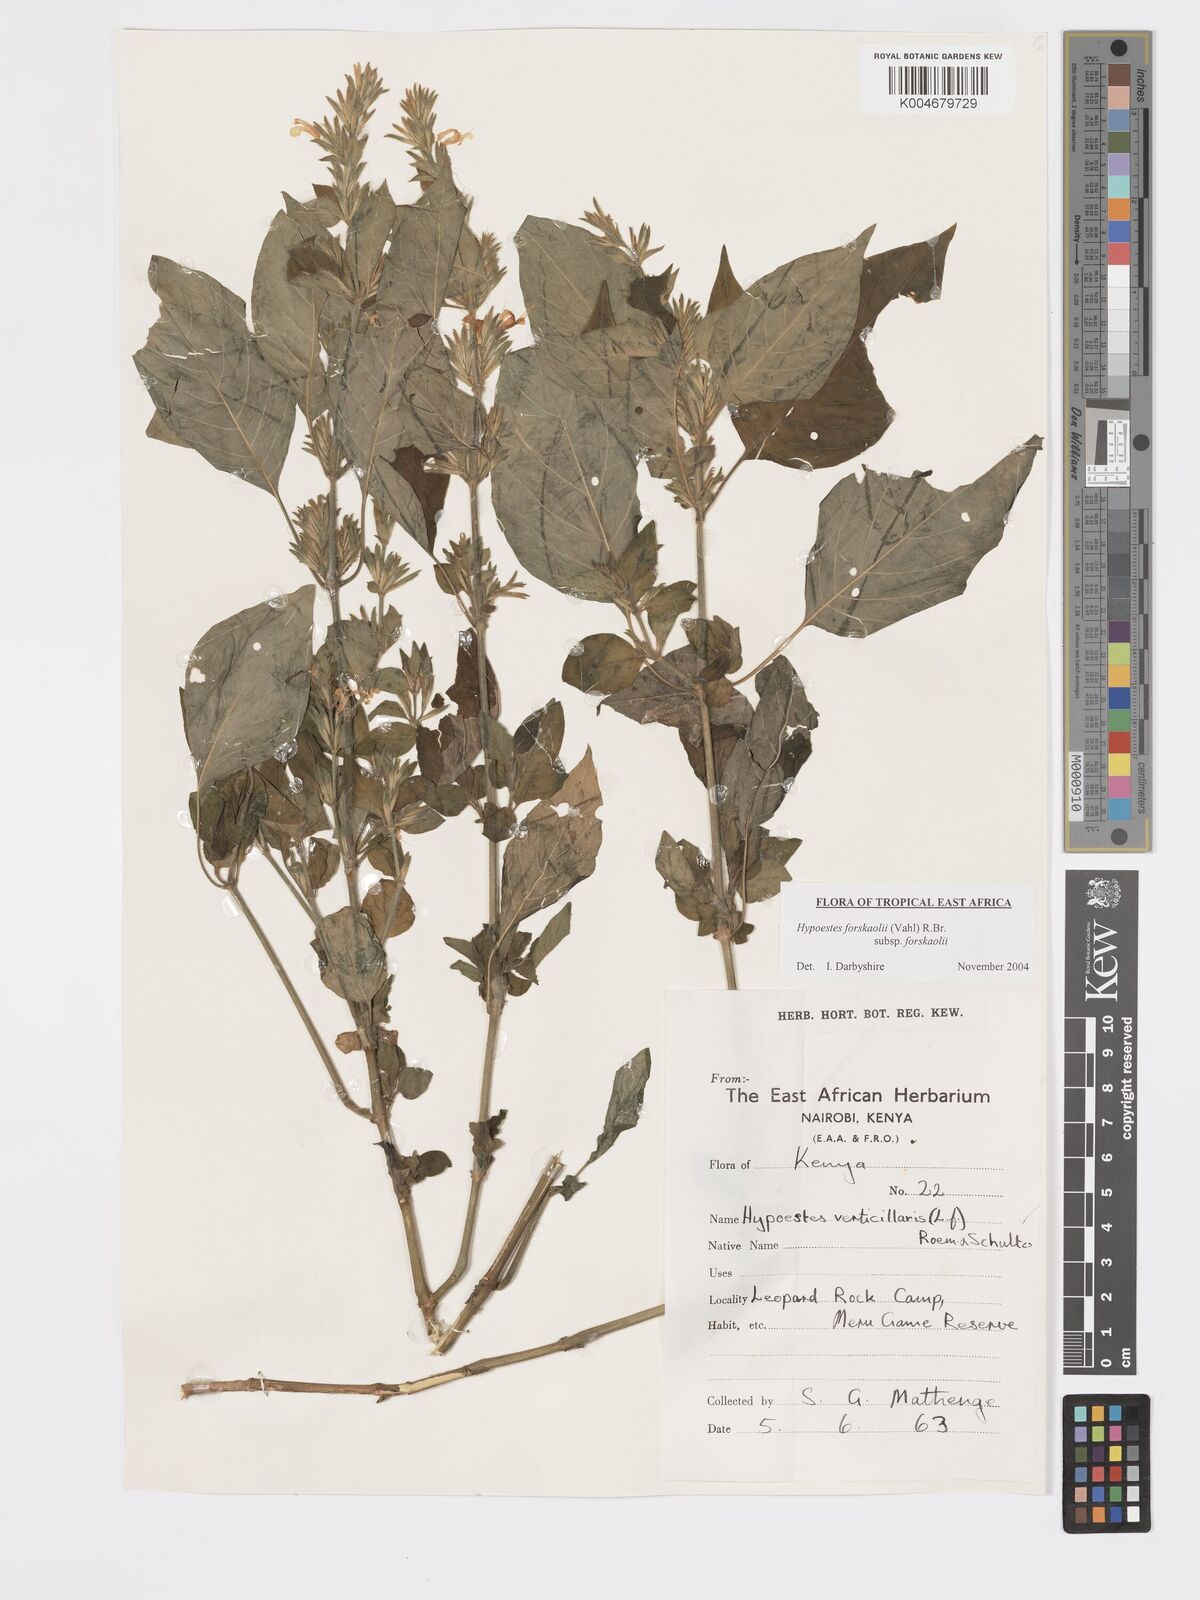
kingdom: Plantae
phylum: Tracheophyta
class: Magnoliopsida
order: Lamiales
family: Acanthaceae
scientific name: Acanthaceae
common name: Acanthaceae
